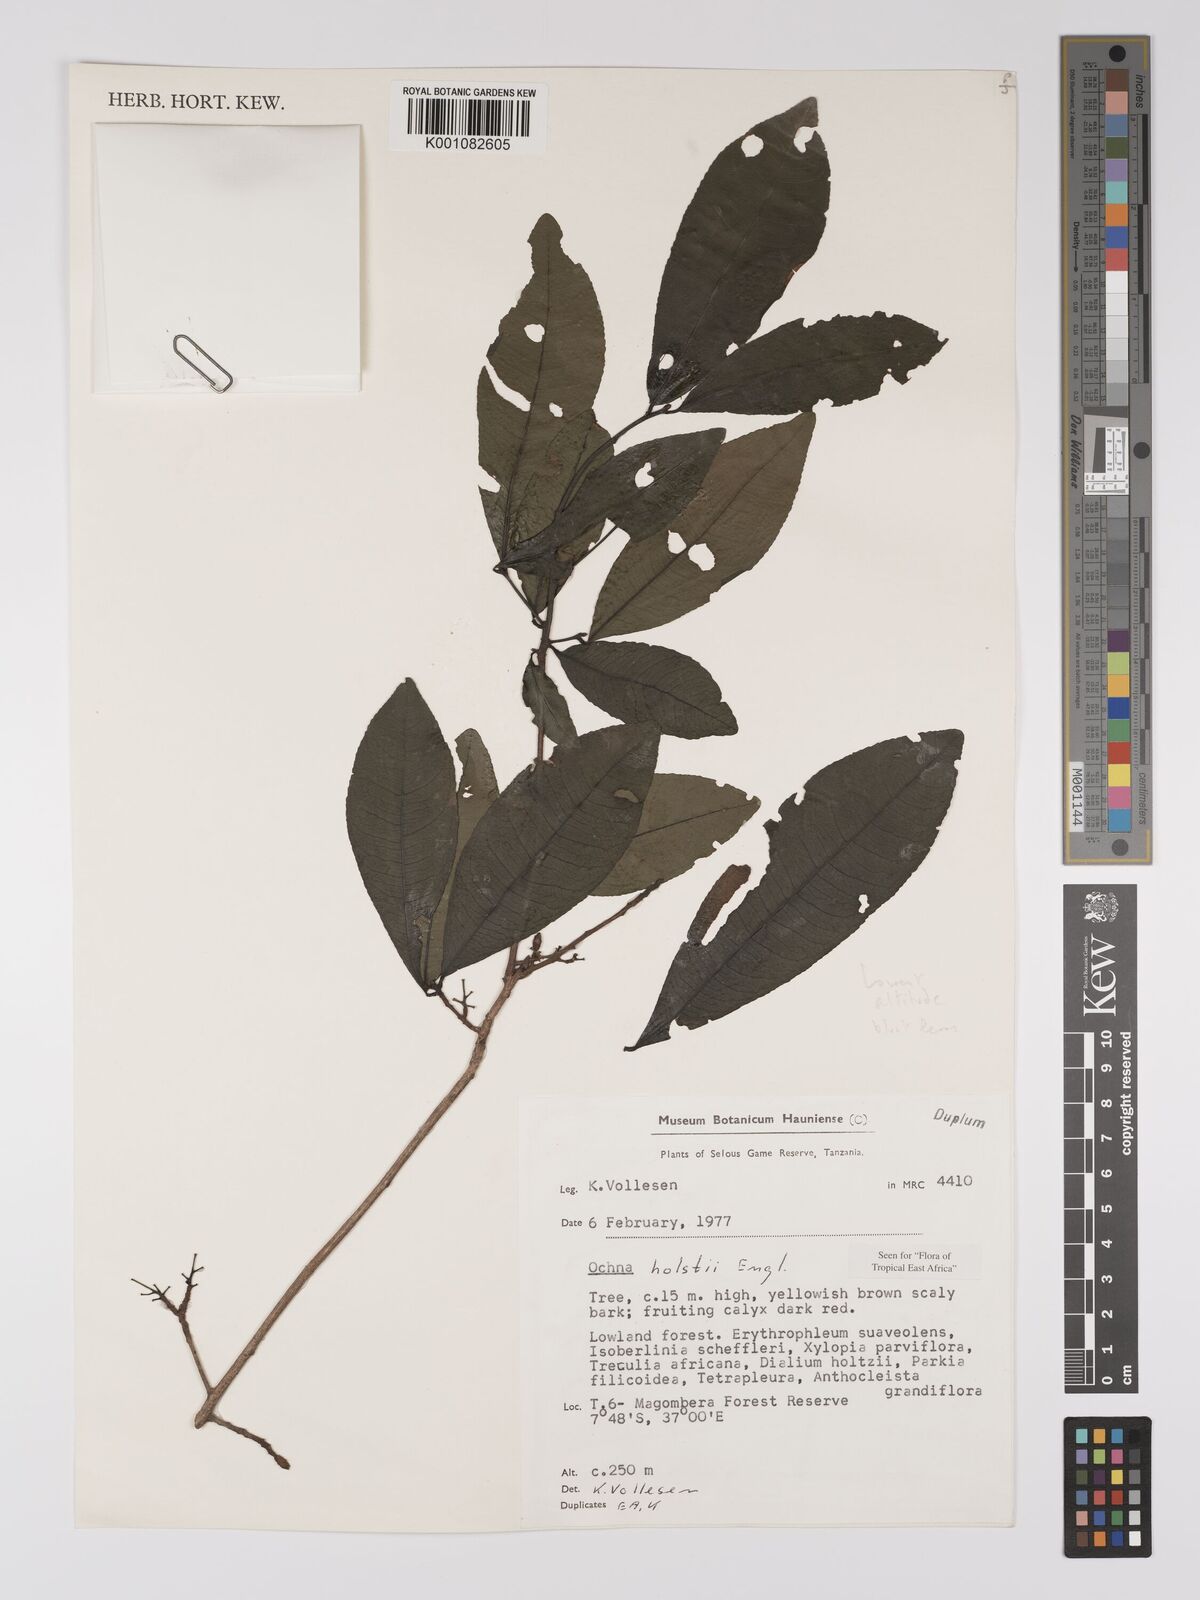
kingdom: Plantae
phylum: Tracheophyta
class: Magnoliopsida
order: Malpighiales
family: Ochnaceae
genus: Ochna
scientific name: Ochna holstii
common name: Red ironwood
